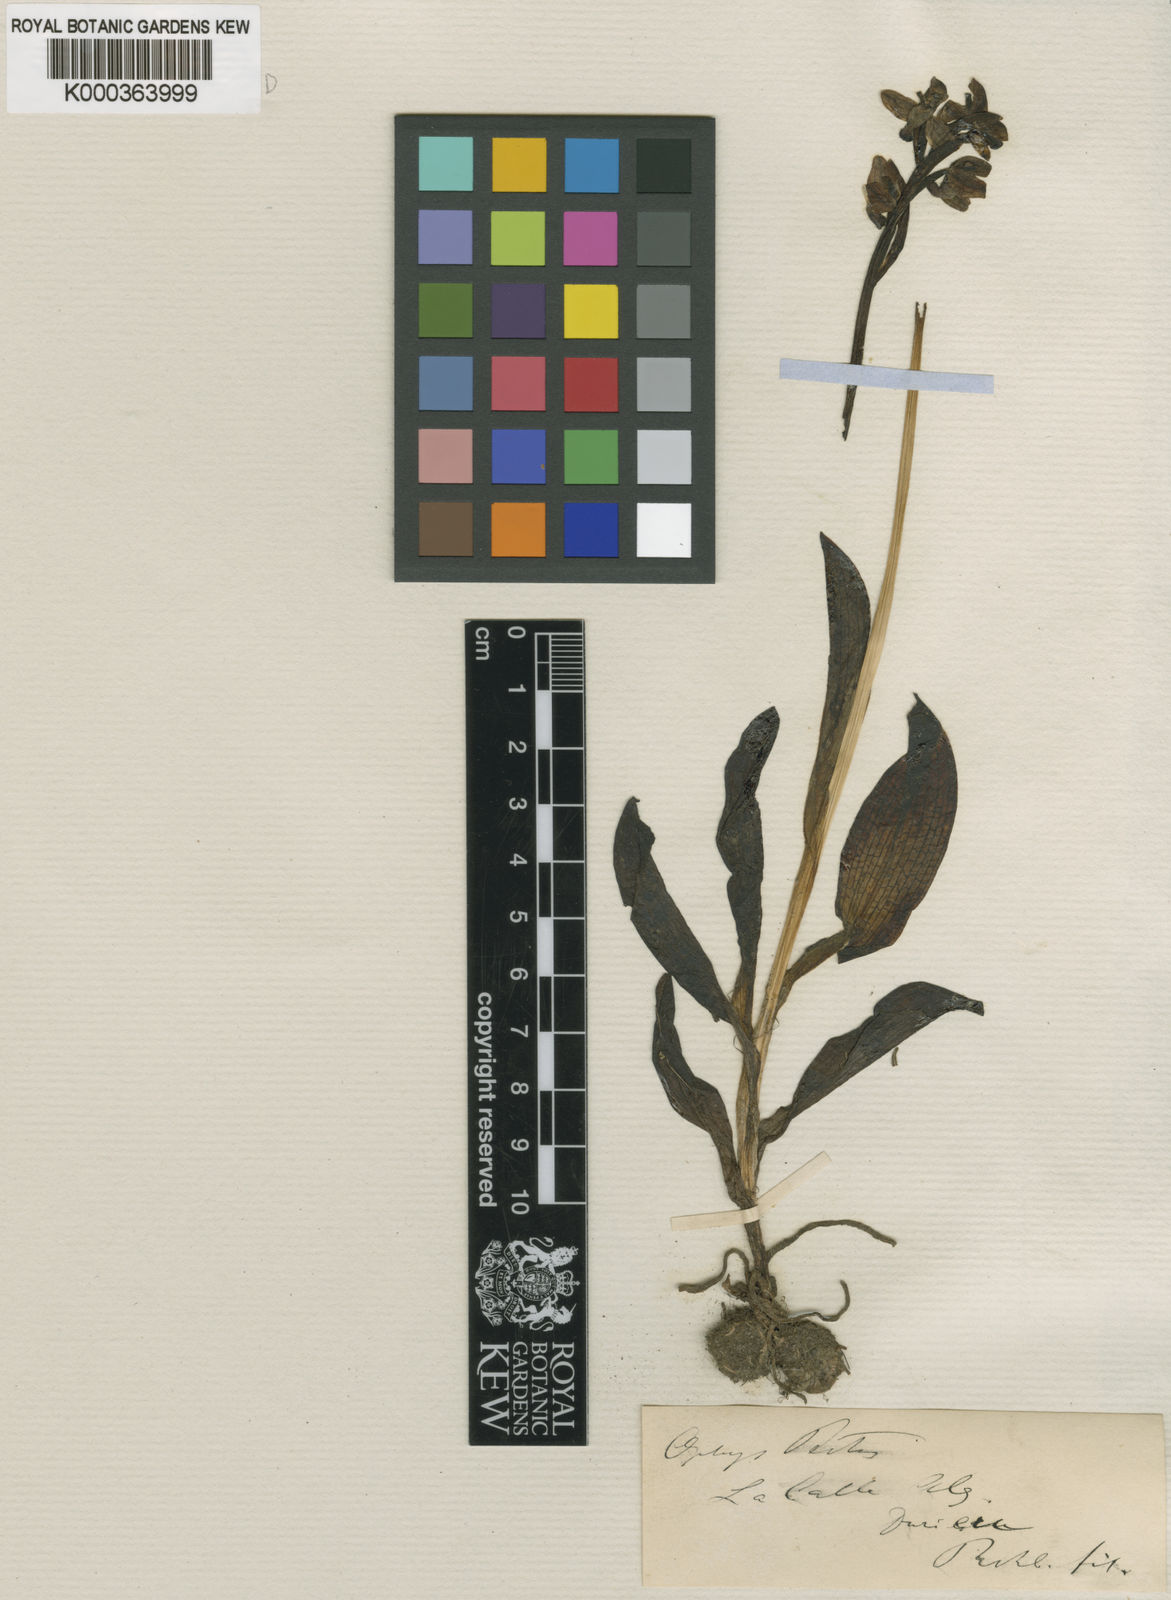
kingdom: Plantae
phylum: Tracheophyta
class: Liliopsida
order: Asparagales
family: Orchidaceae
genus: Ophrys
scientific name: Ophrys fusca
